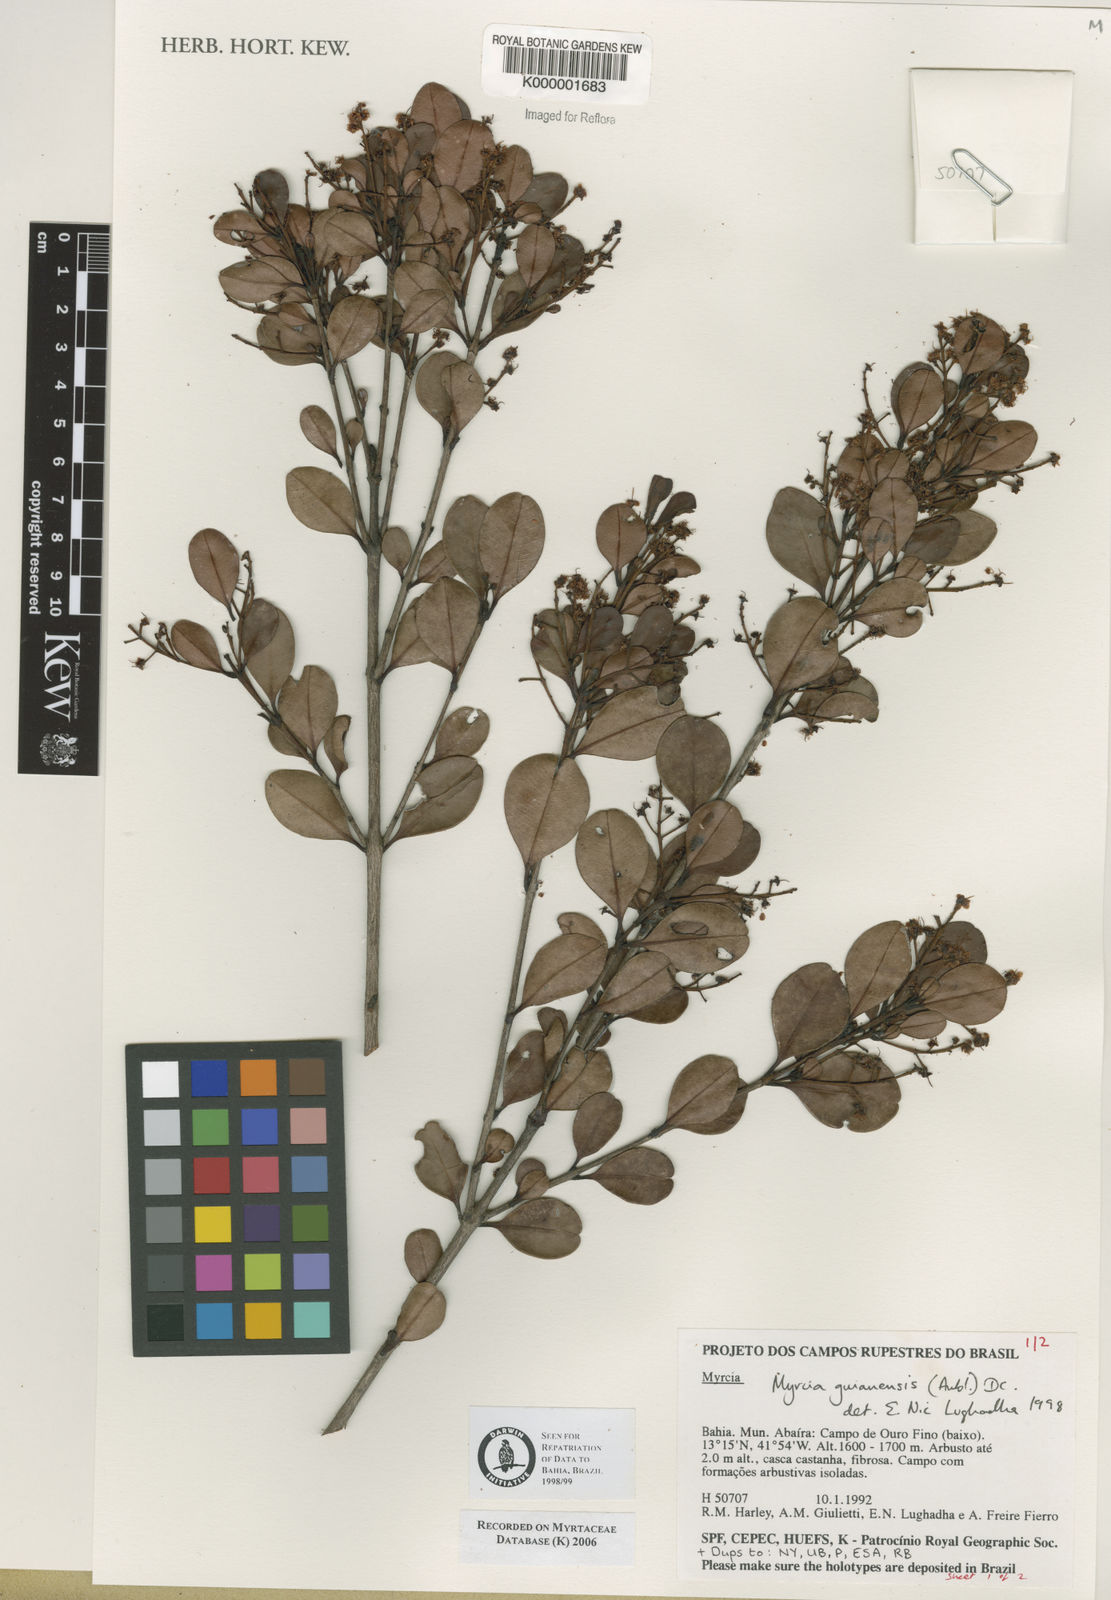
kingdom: Plantae
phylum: Tracheophyta
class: Magnoliopsida
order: Myrtales
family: Myrtaceae
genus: Myrcia
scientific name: Myrcia guianensis
